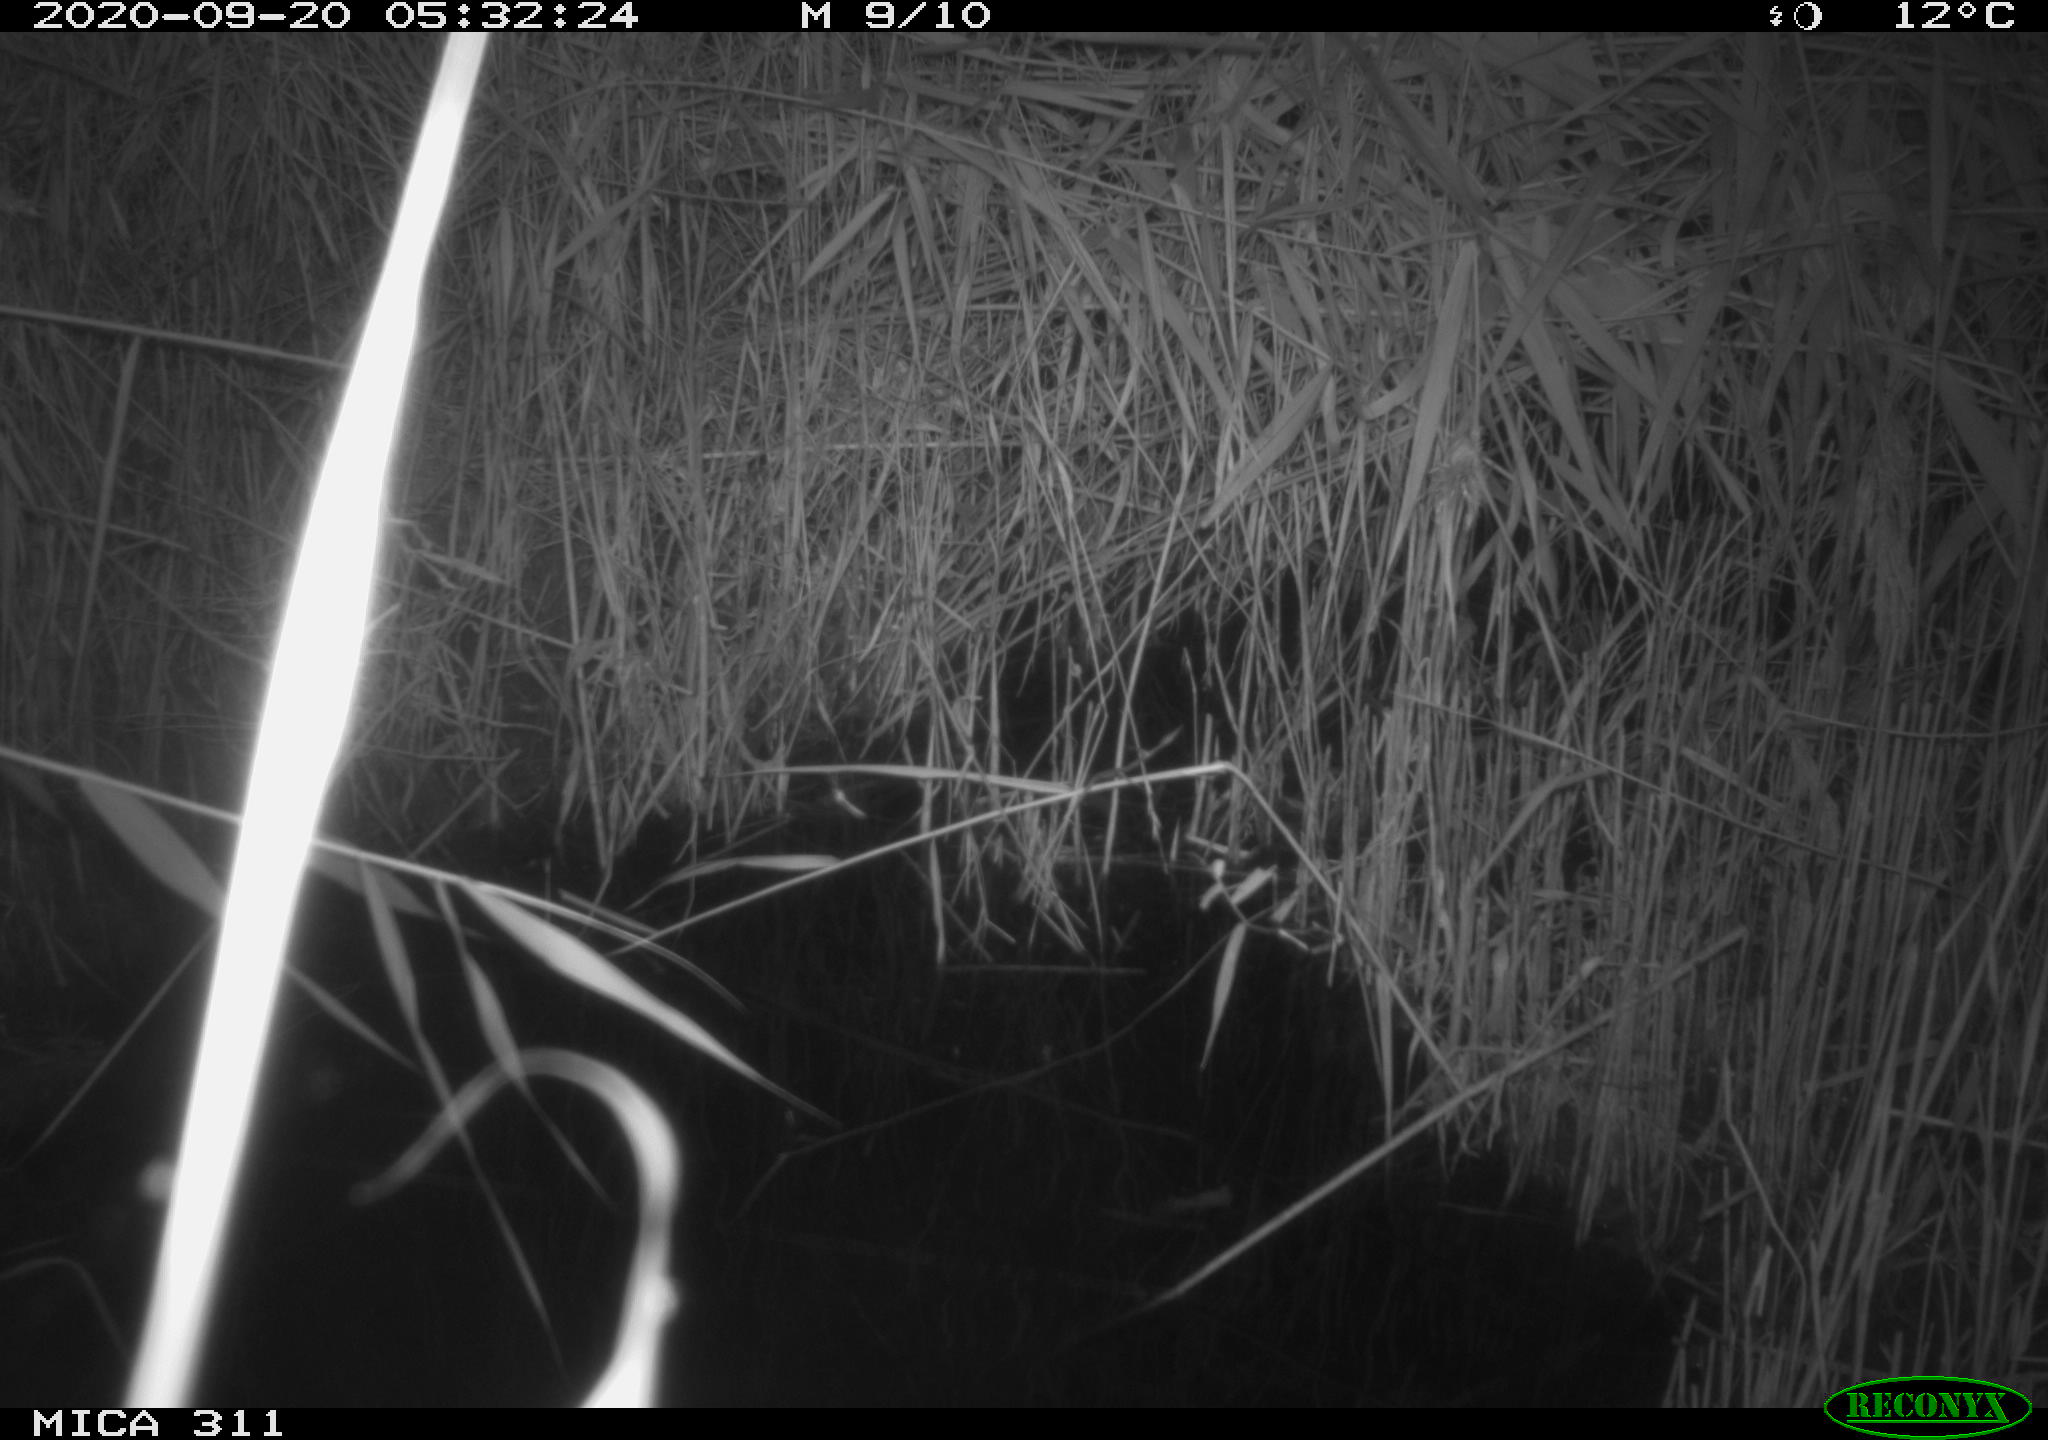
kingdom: Animalia
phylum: Chordata
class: Mammalia
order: Rodentia
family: Muridae
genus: Rattus
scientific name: Rattus norvegicus
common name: Brown rat
